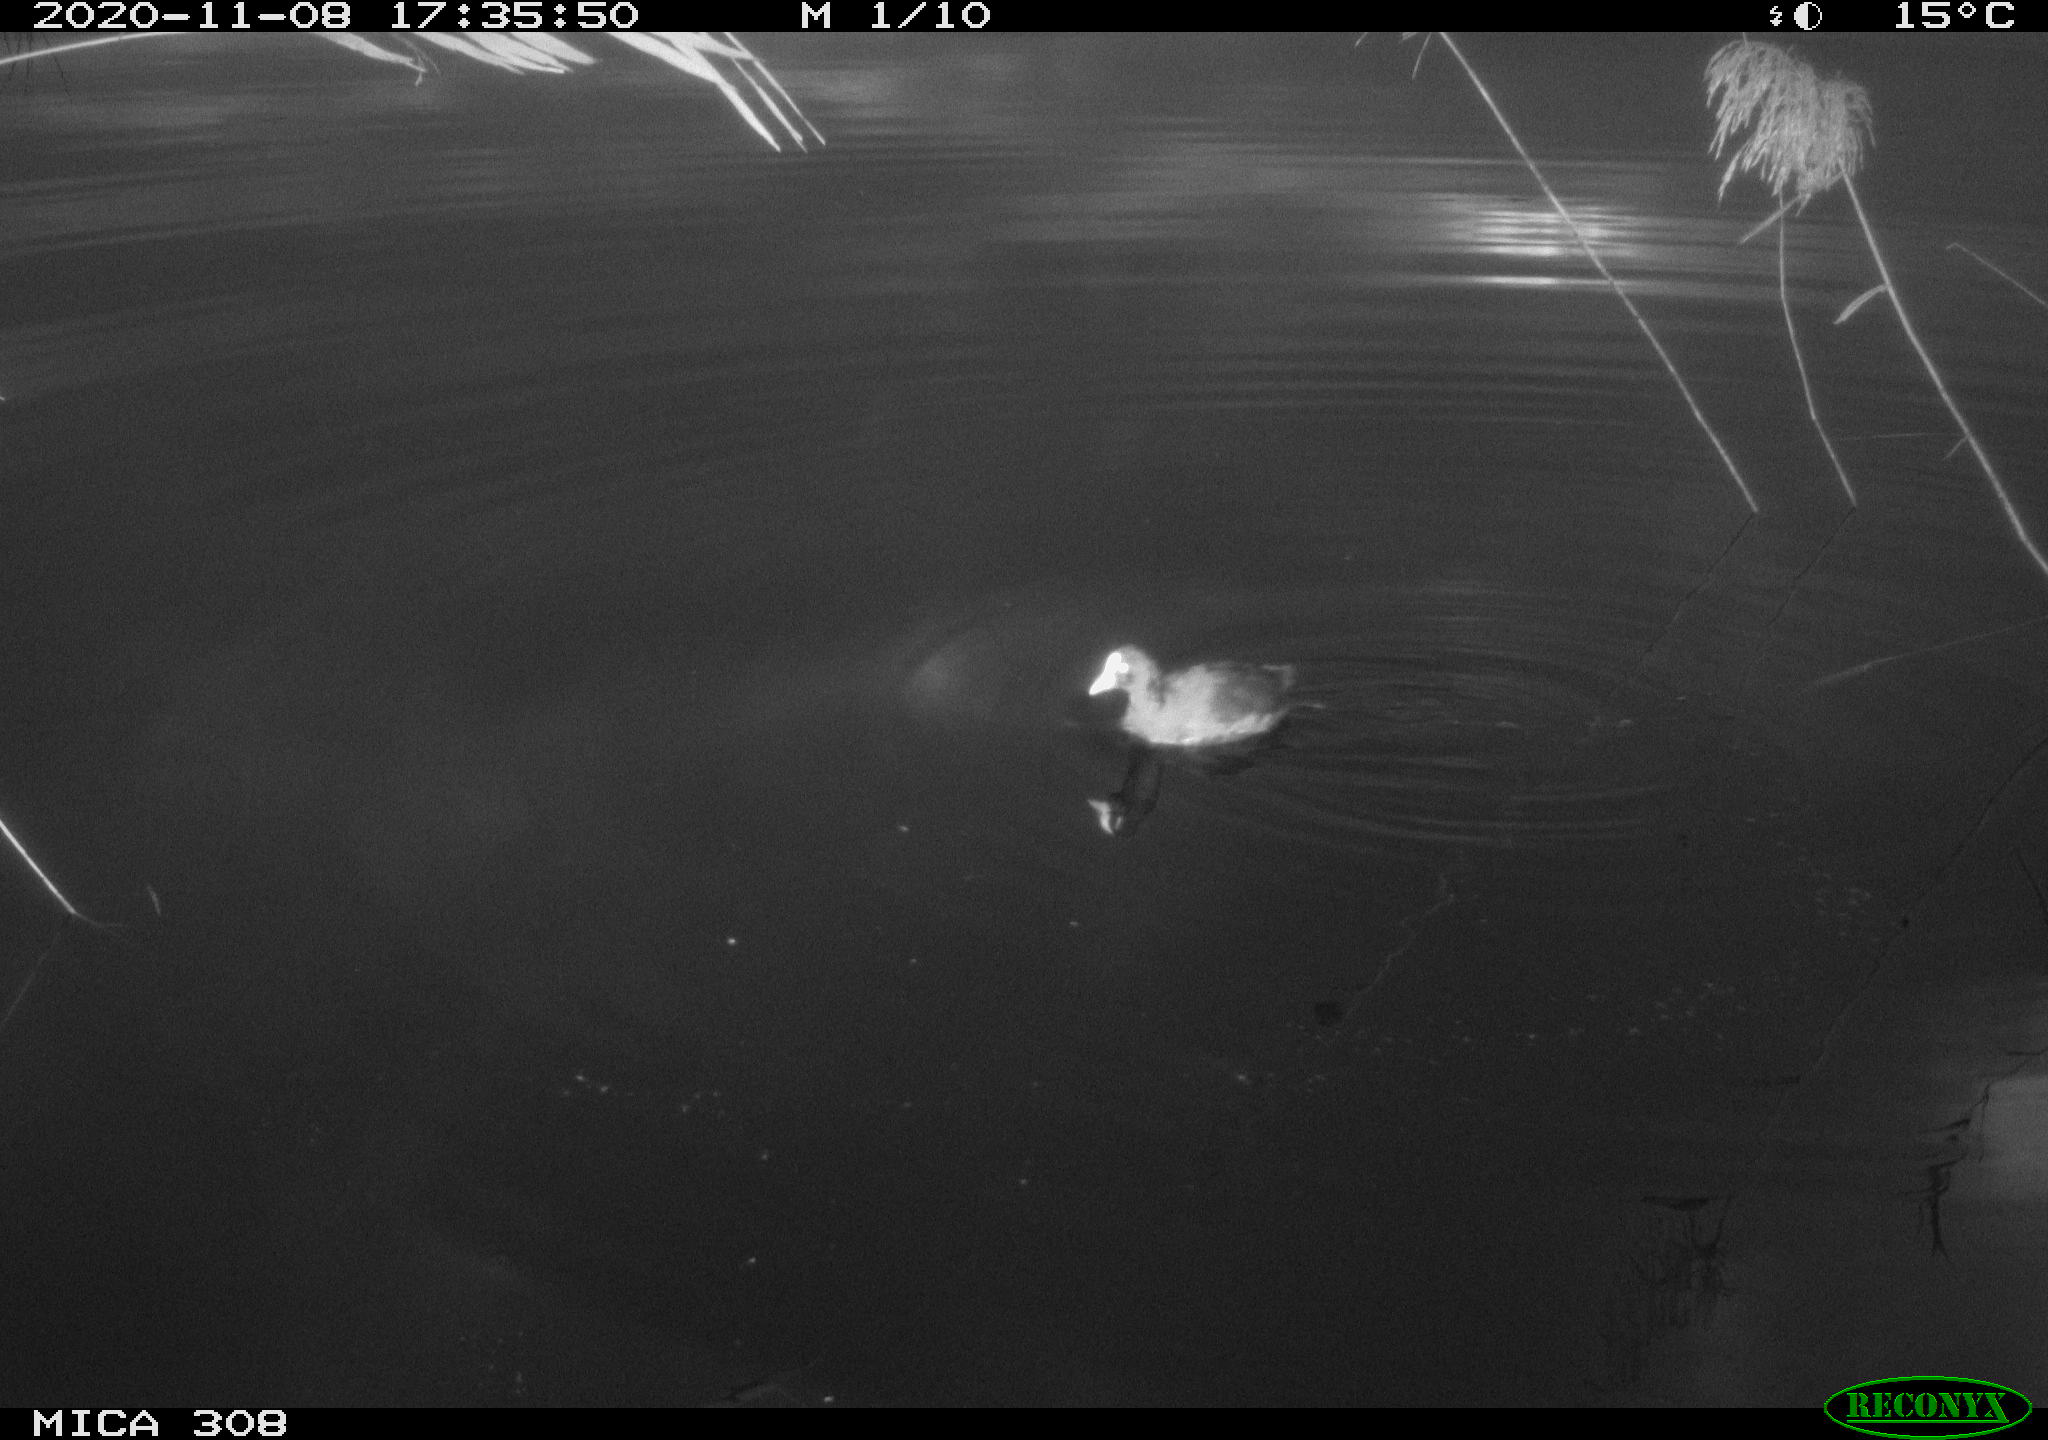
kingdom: Animalia
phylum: Chordata
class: Aves
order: Gruiformes
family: Rallidae
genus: Fulica
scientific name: Fulica atra
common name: Eurasian coot
